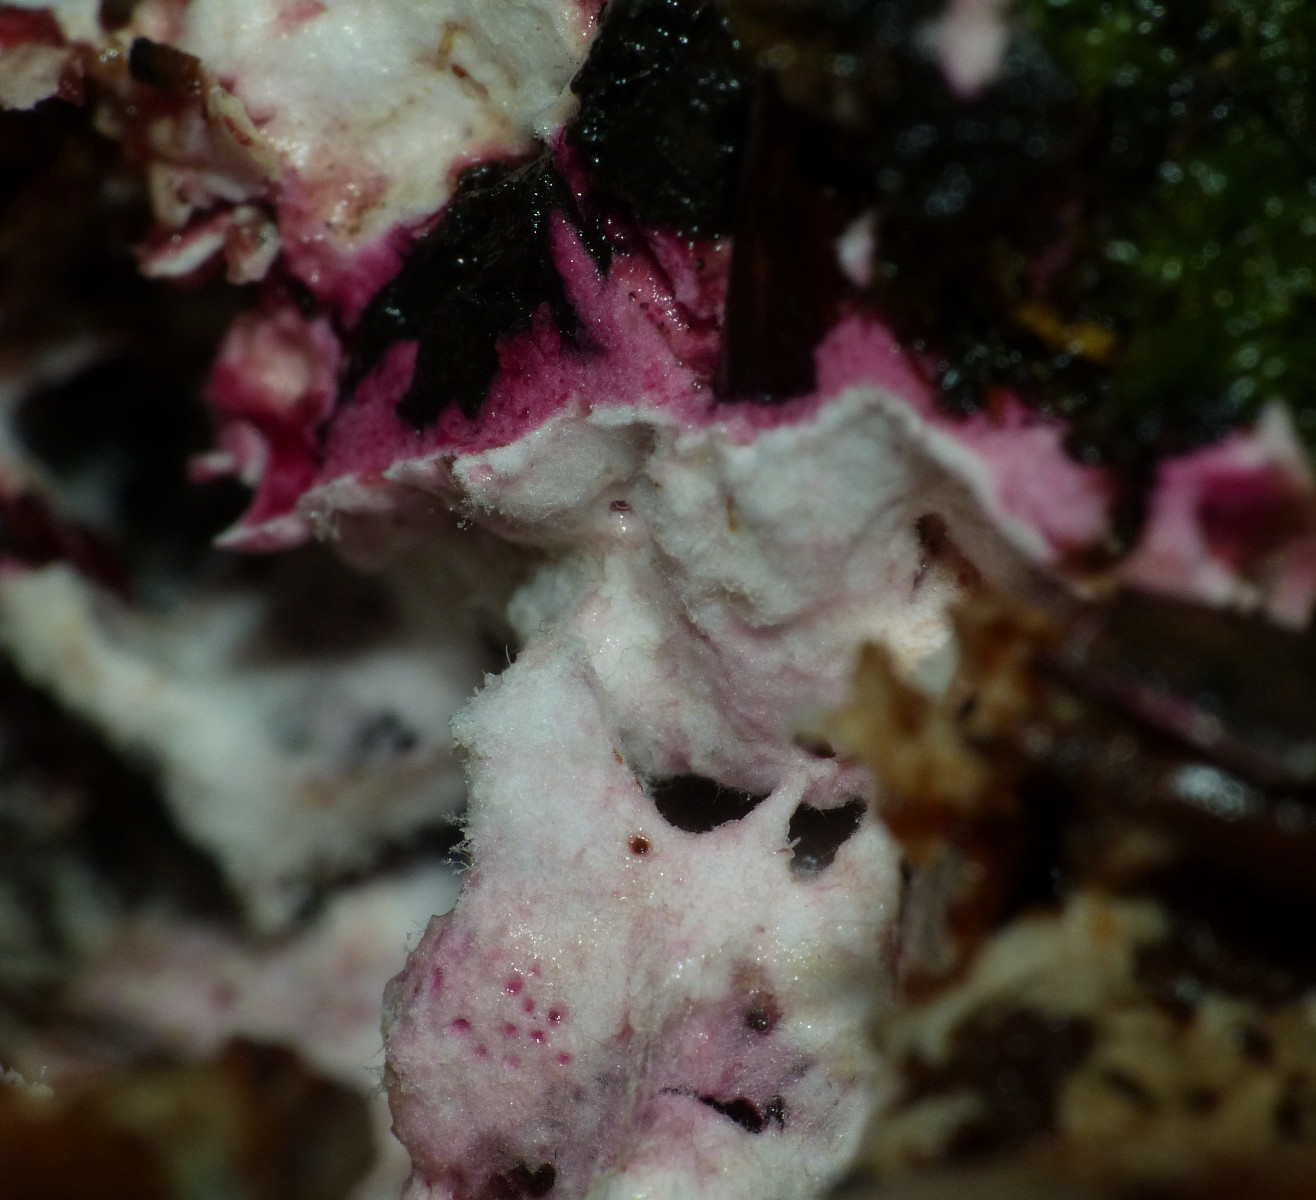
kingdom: Fungi
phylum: Ascomycota
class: Sordariomycetes
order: Hypocreales
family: Hypocreaceae
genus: Hypomyces
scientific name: Hypomyces
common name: snylteskorpe
